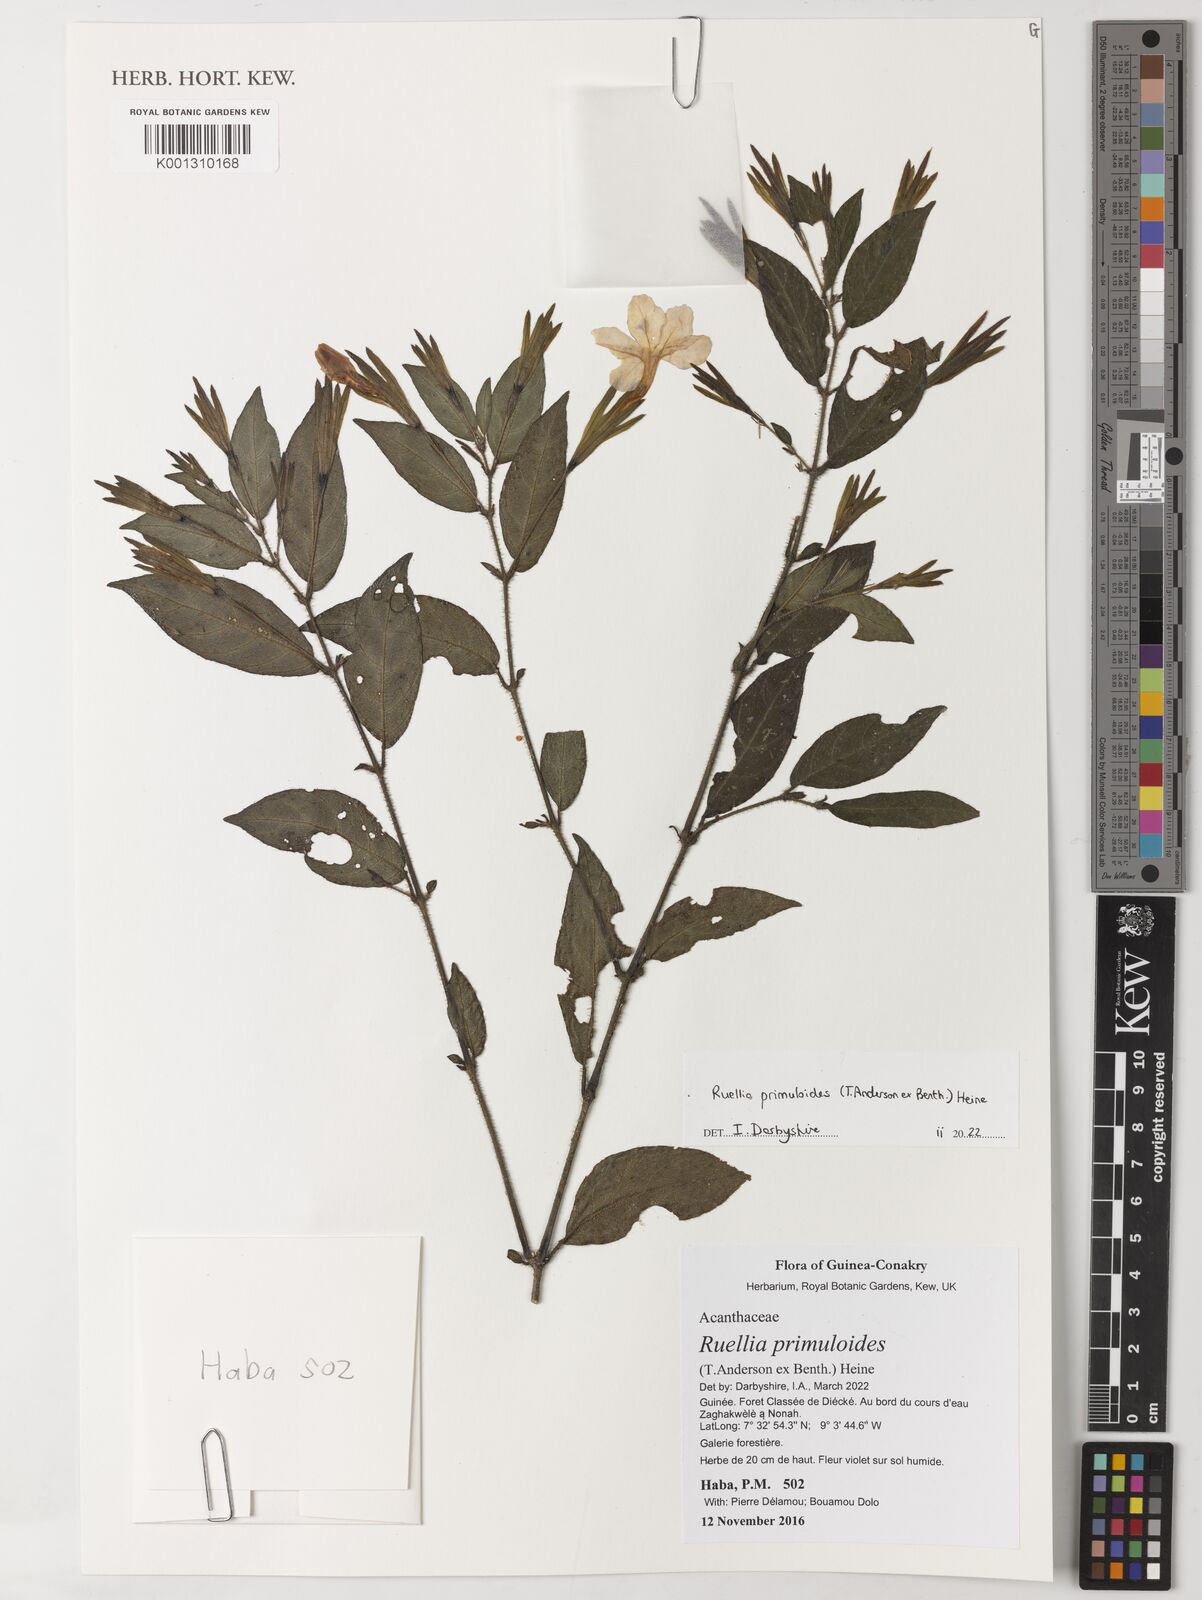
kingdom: Plantae
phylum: Tracheophyta
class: Magnoliopsida
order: Lamiales
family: Acanthaceae
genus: Ruellia
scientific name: Ruellia primuloides
